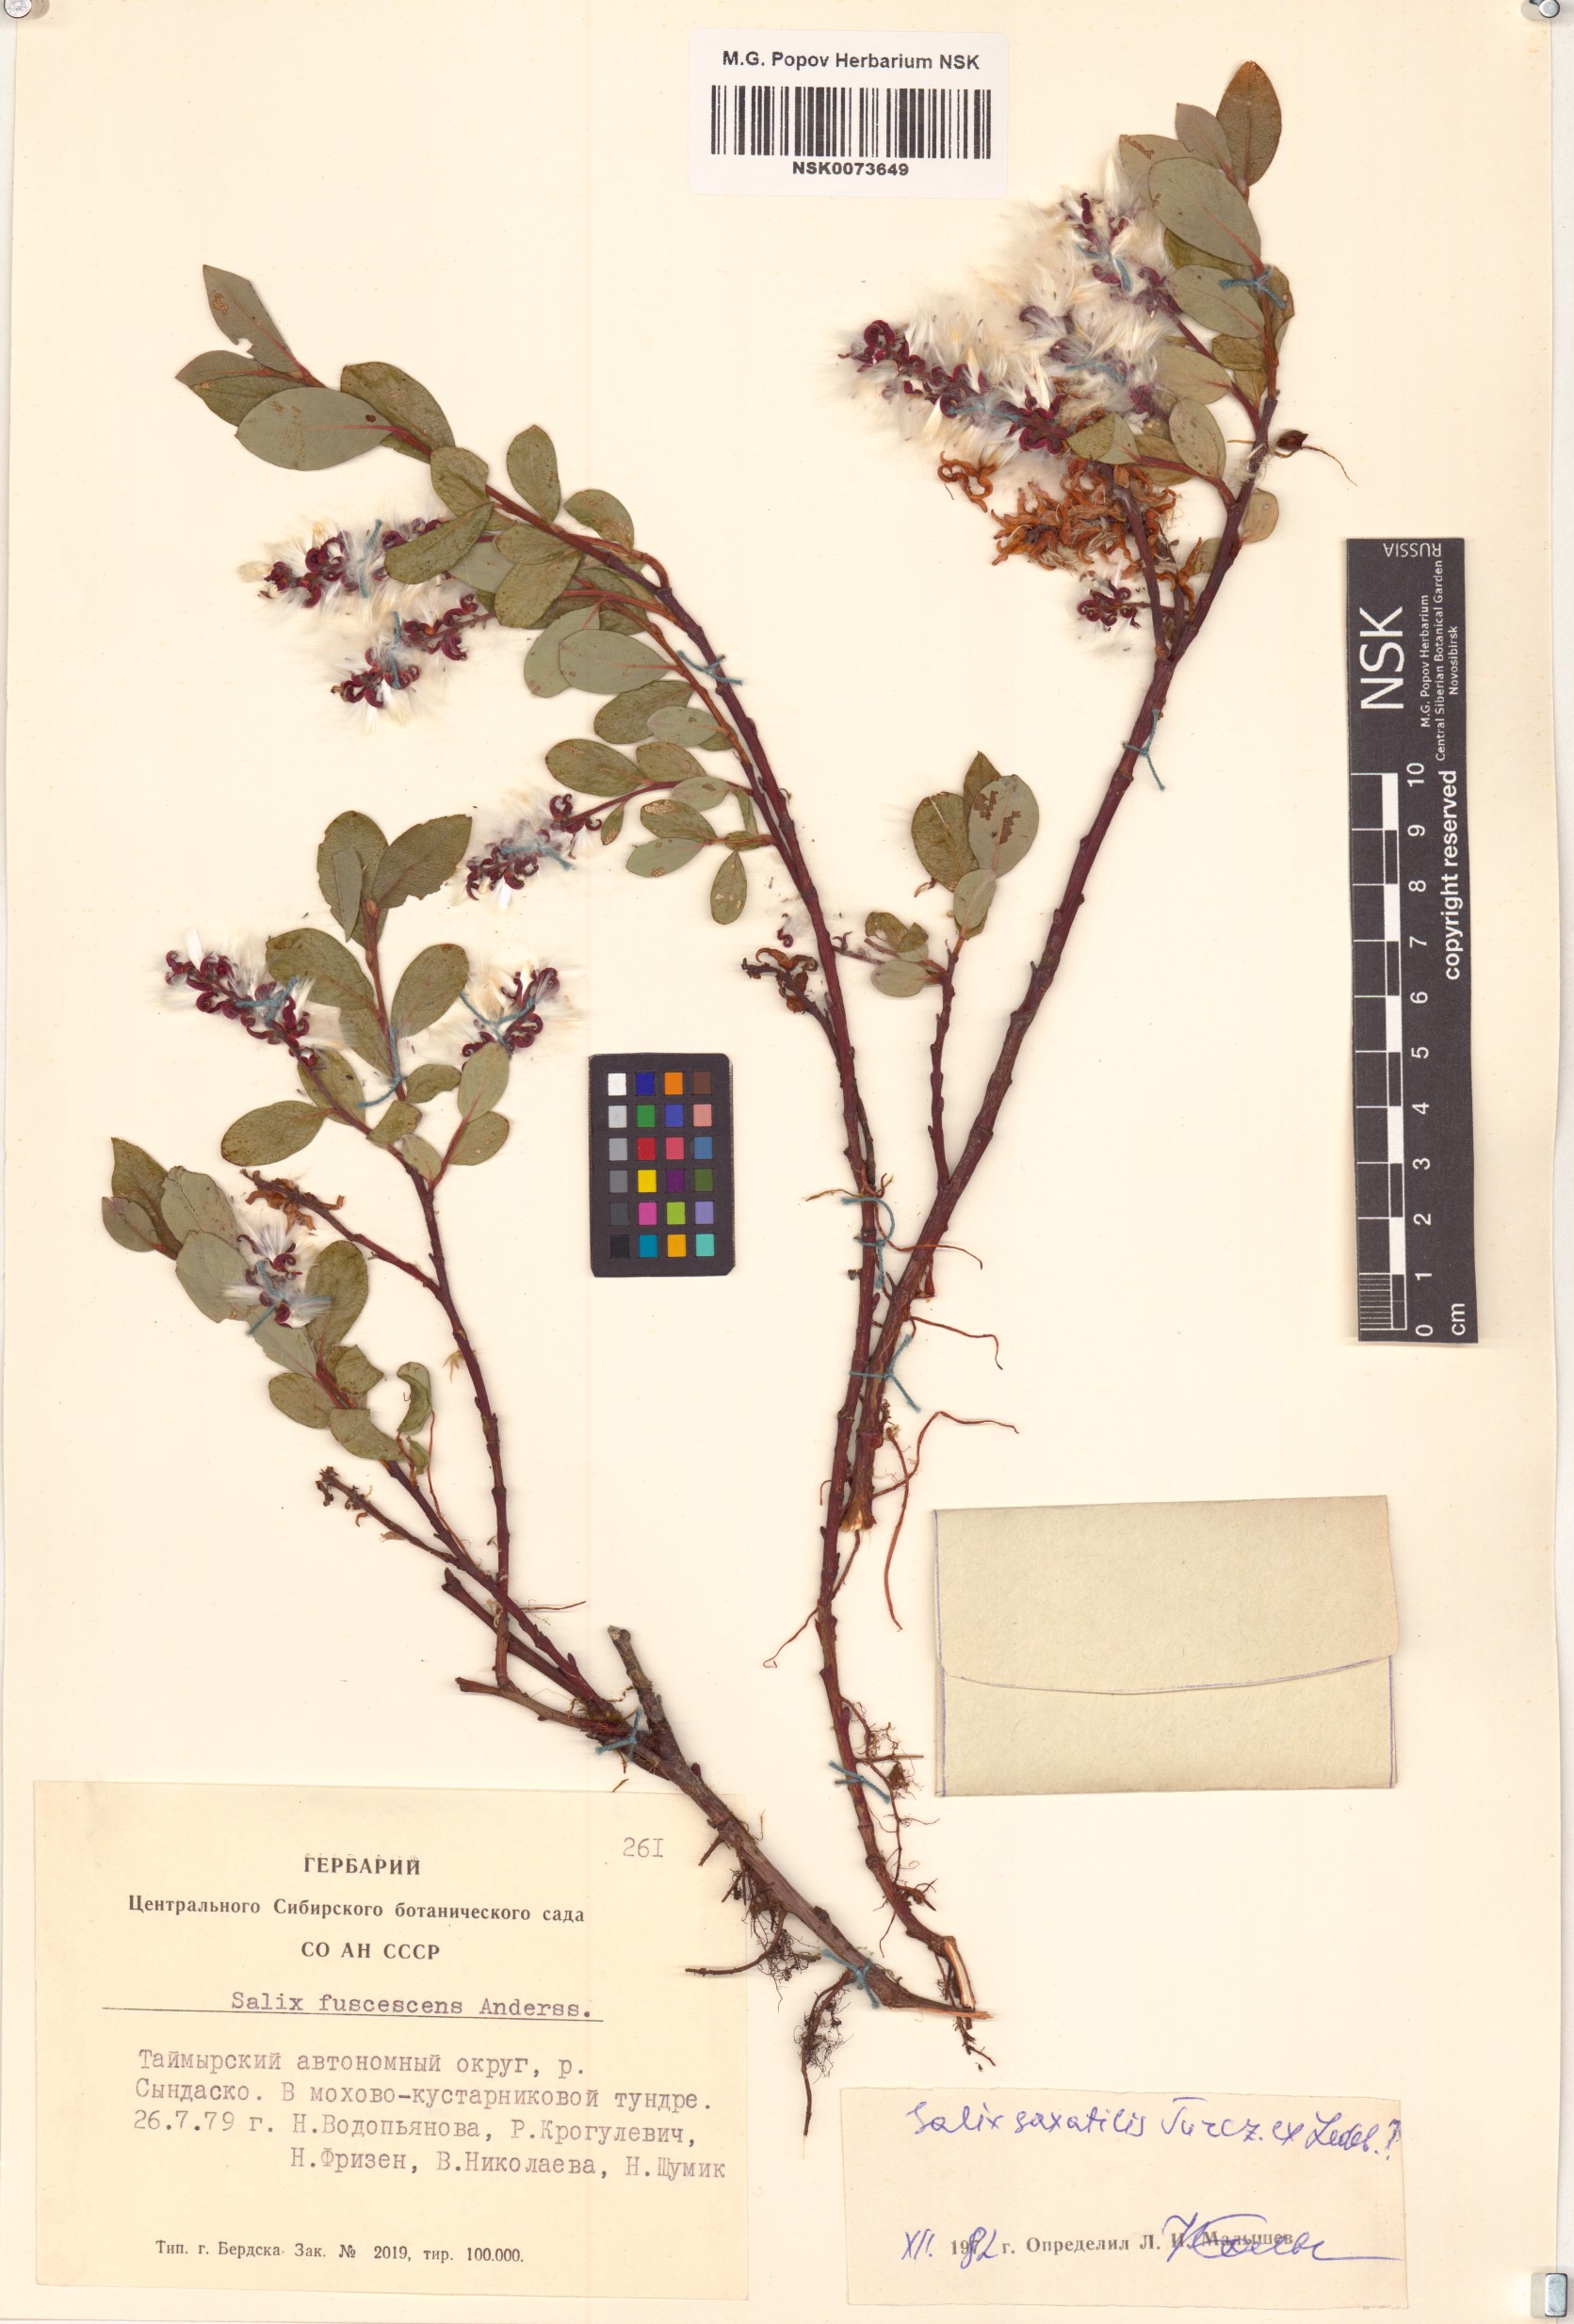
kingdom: Plantae
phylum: Tracheophyta
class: Magnoliopsida
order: Malpighiales
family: Salicaceae
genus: Salix
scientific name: Salix saxatilis
